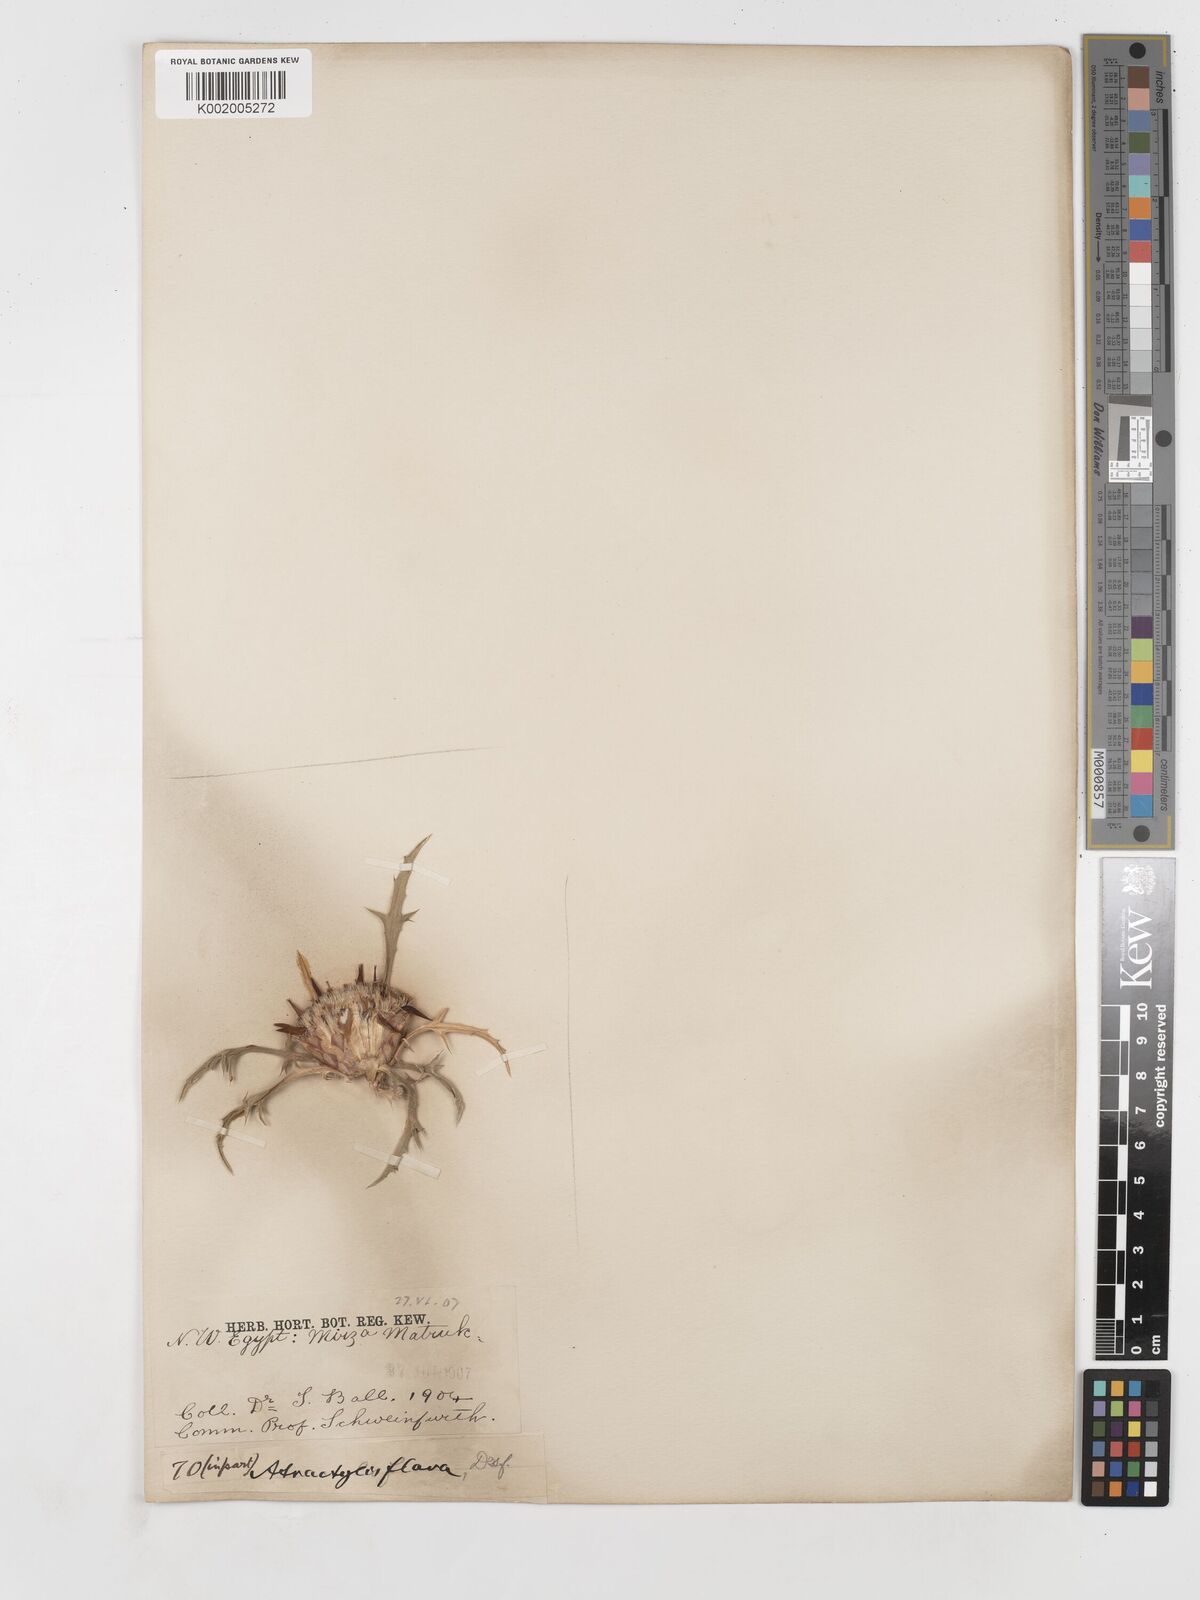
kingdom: Plantae
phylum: Tracheophyta
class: Magnoliopsida
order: Asterales
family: Asteraceae
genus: Atractylis
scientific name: Atractylis carduus
